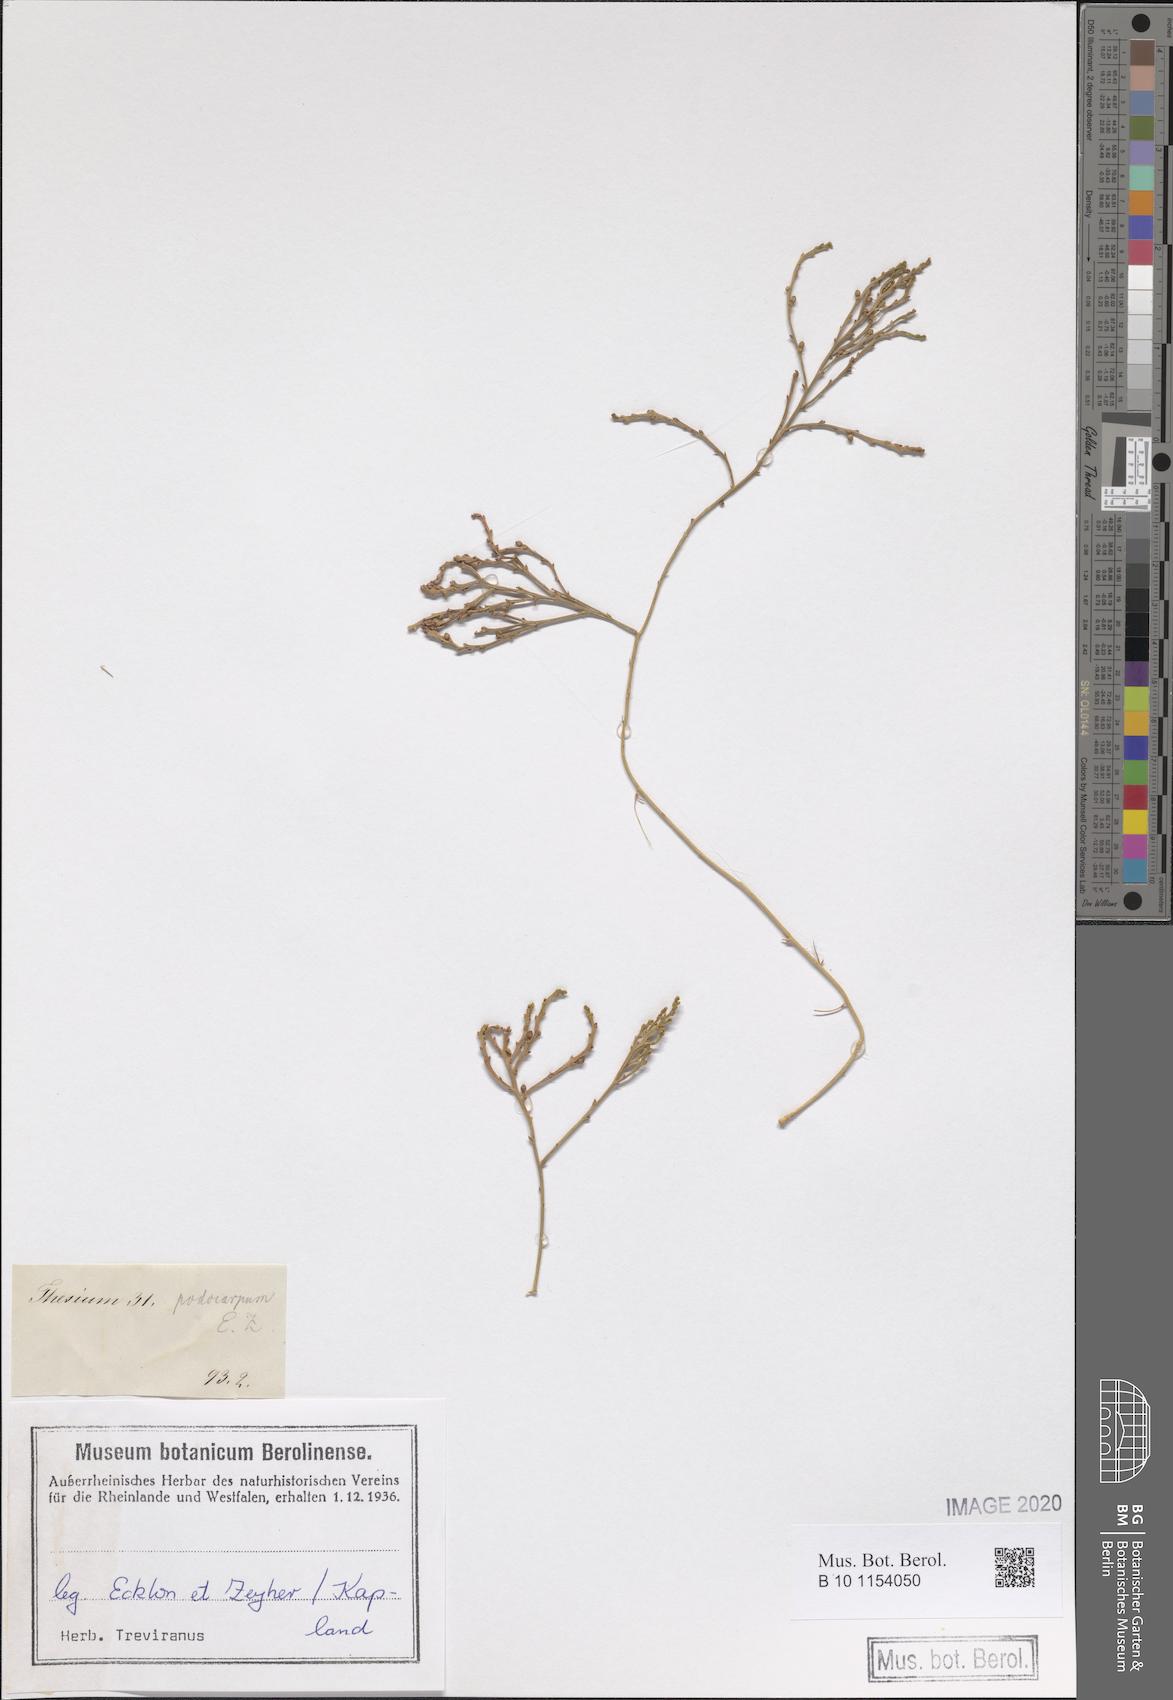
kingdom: Plantae
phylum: Tracheophyta
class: Magnoliopsida
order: Santalales
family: Thesiaceae
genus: Thesium
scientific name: Thesium fragile
